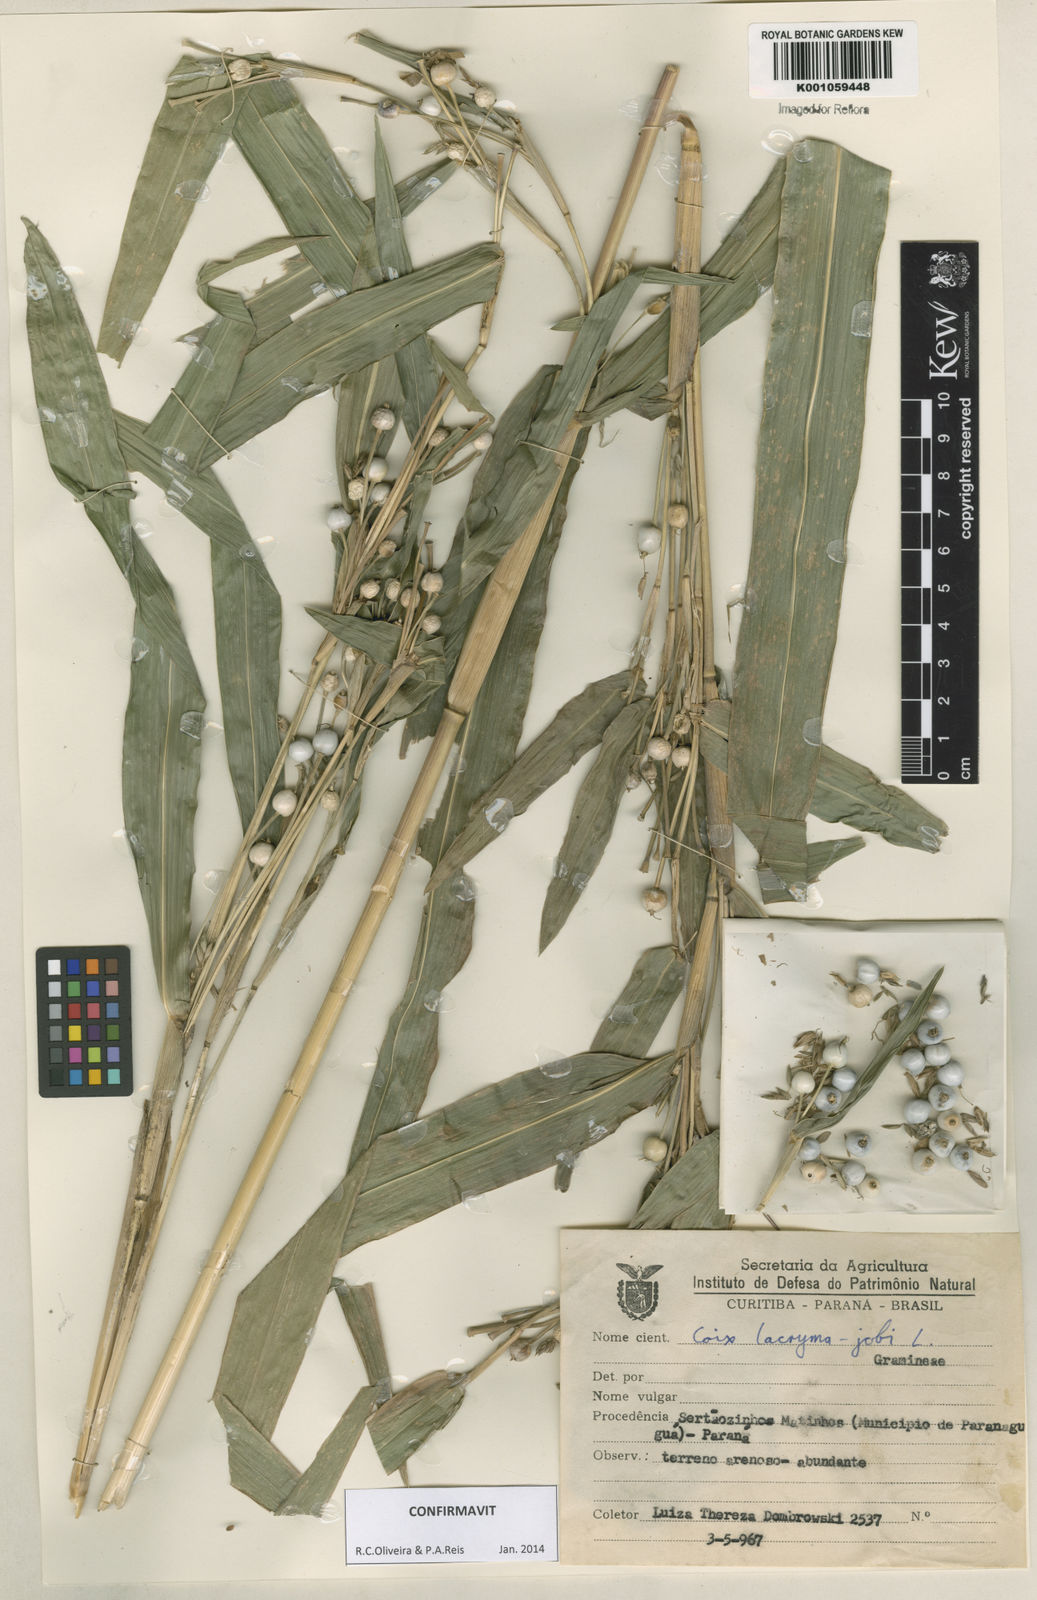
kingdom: Plantae
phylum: Tracheophyta
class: Liliopsida
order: Poales
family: Poaceae
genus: Coix
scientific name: Coix lacryma-jobi
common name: Job's tears
